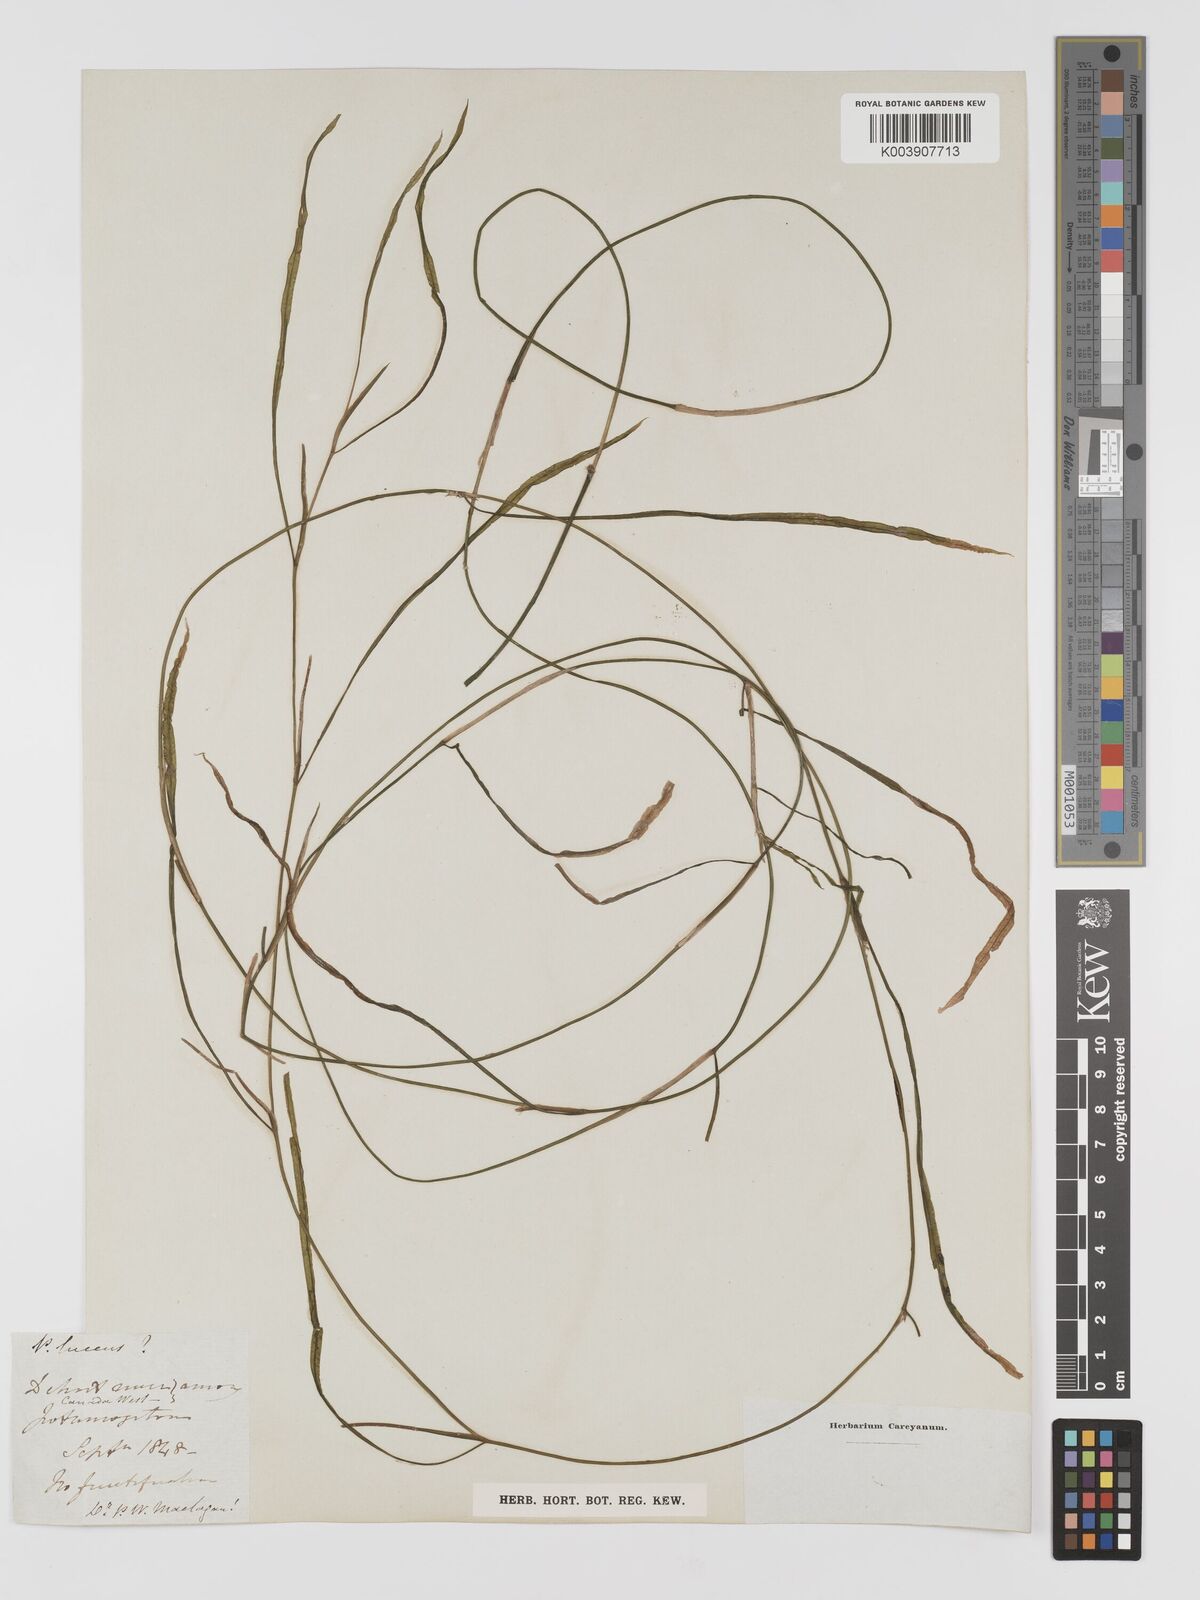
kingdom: Plantae
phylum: Tracheophyta
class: Liliopsida
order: Alismatales
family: Potamogetonaceae
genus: Potamogeton
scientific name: Potamogeton illinoensis
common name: Illinois pondweed
